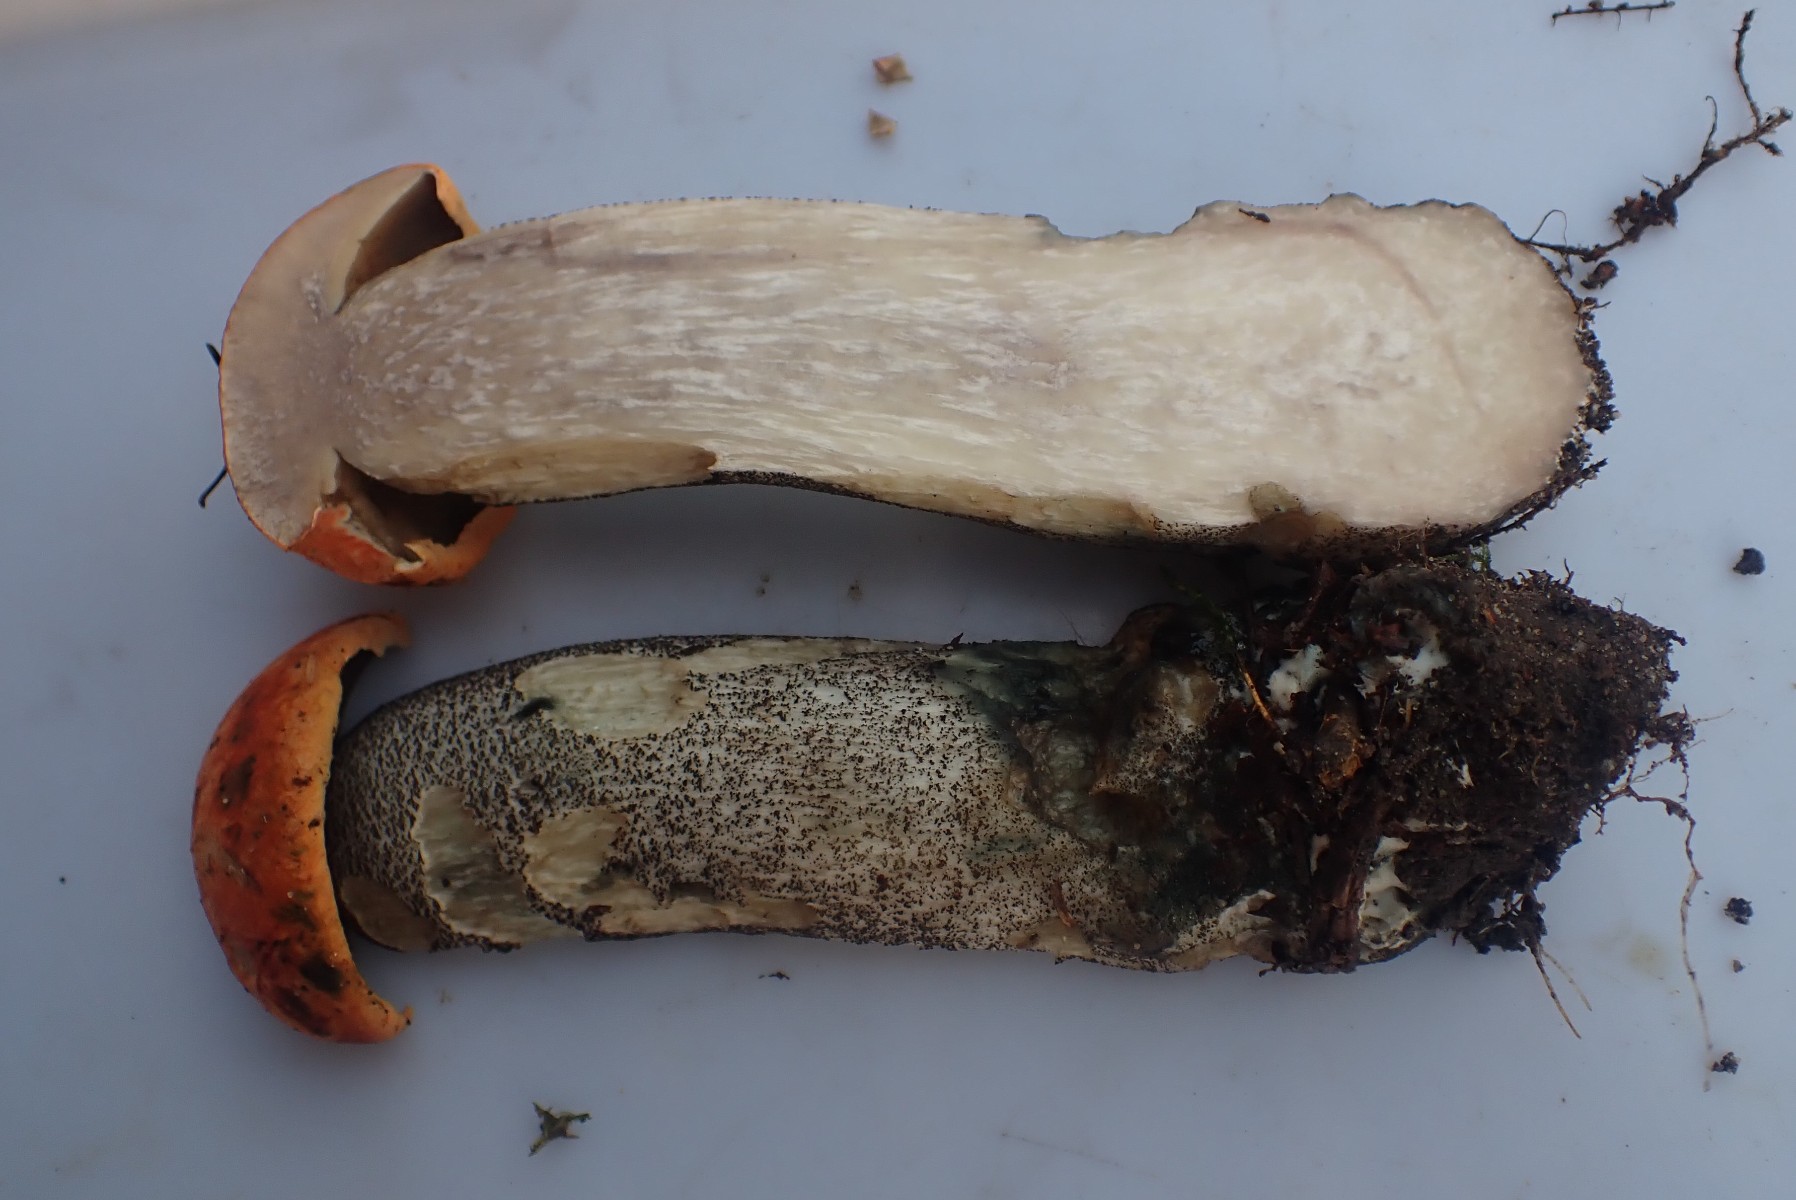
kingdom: Fungi
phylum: Basidiomycota
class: Agaricomycetes
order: Boletales
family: Boletaceae
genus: Leccinum
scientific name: Leccinum versipelle
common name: orange skælrørhat
